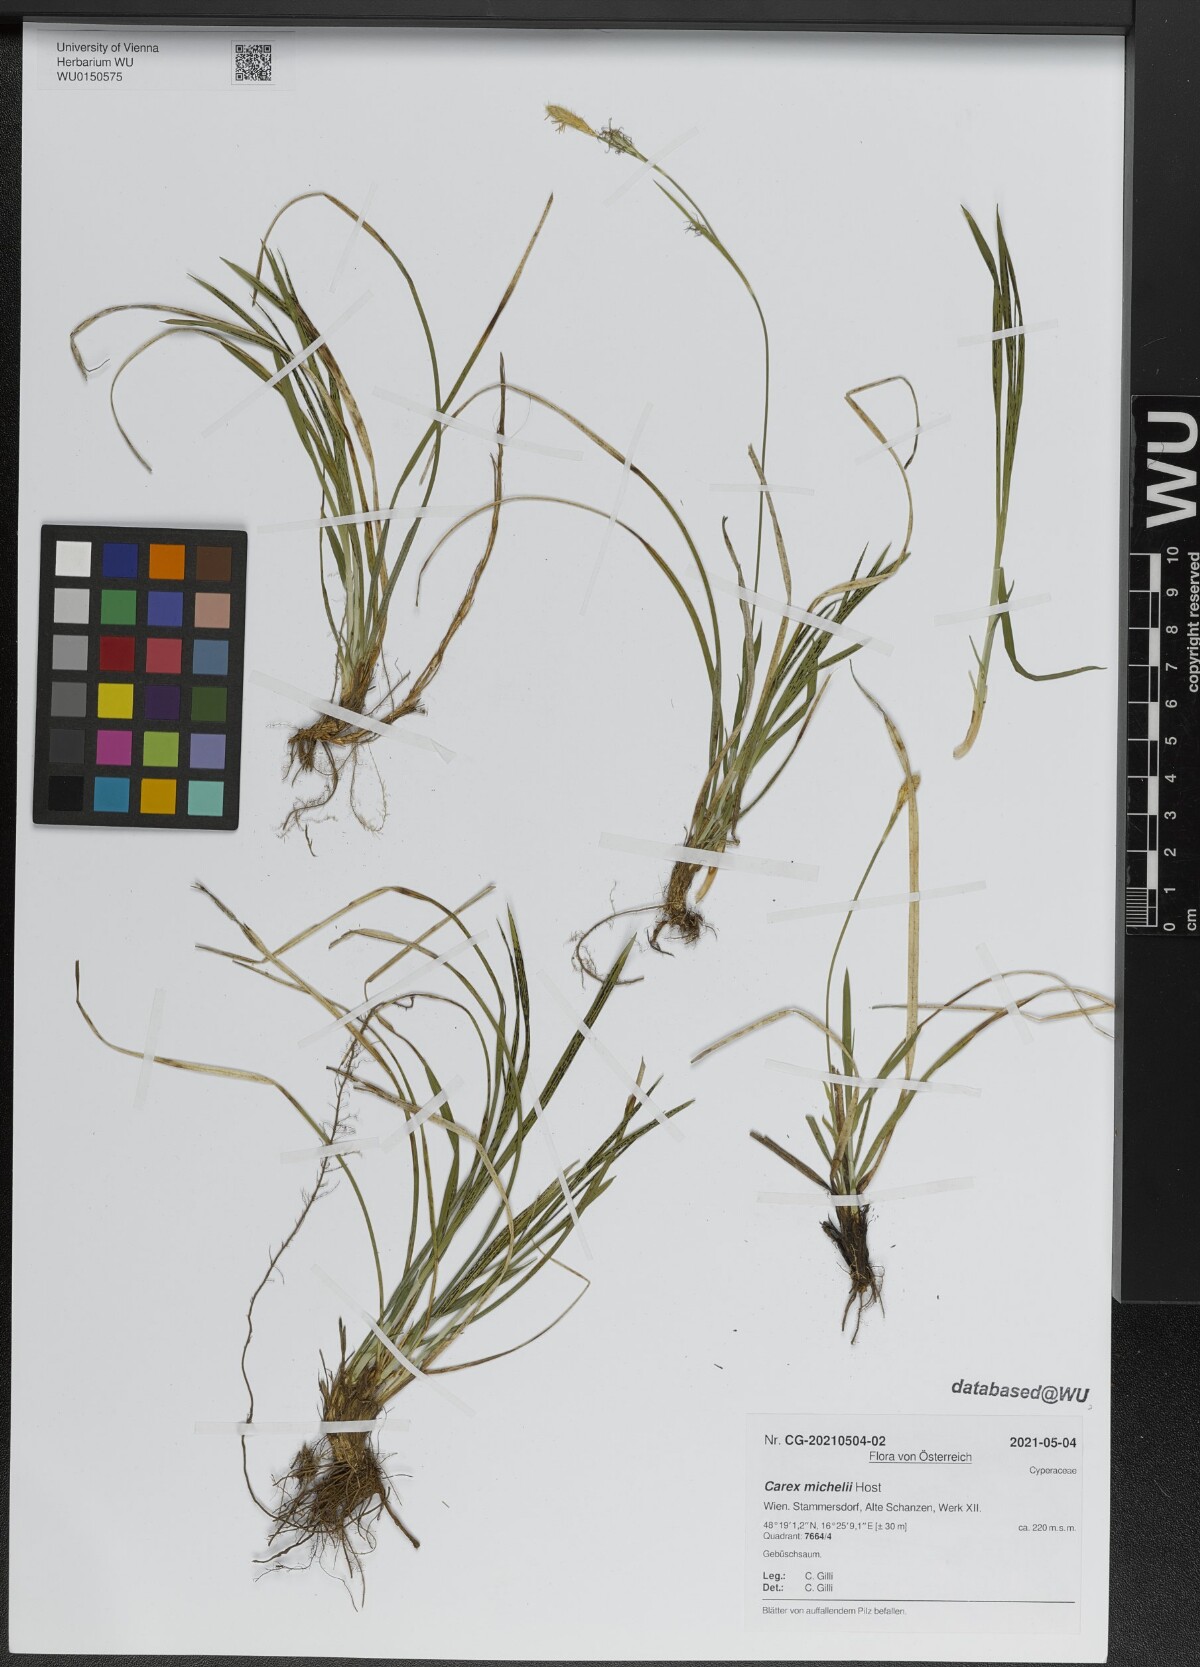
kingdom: Plantae
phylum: Tracheophyta
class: Liliopsida
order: Poales
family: Cyperaceae
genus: Carex
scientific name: Carex michelii
